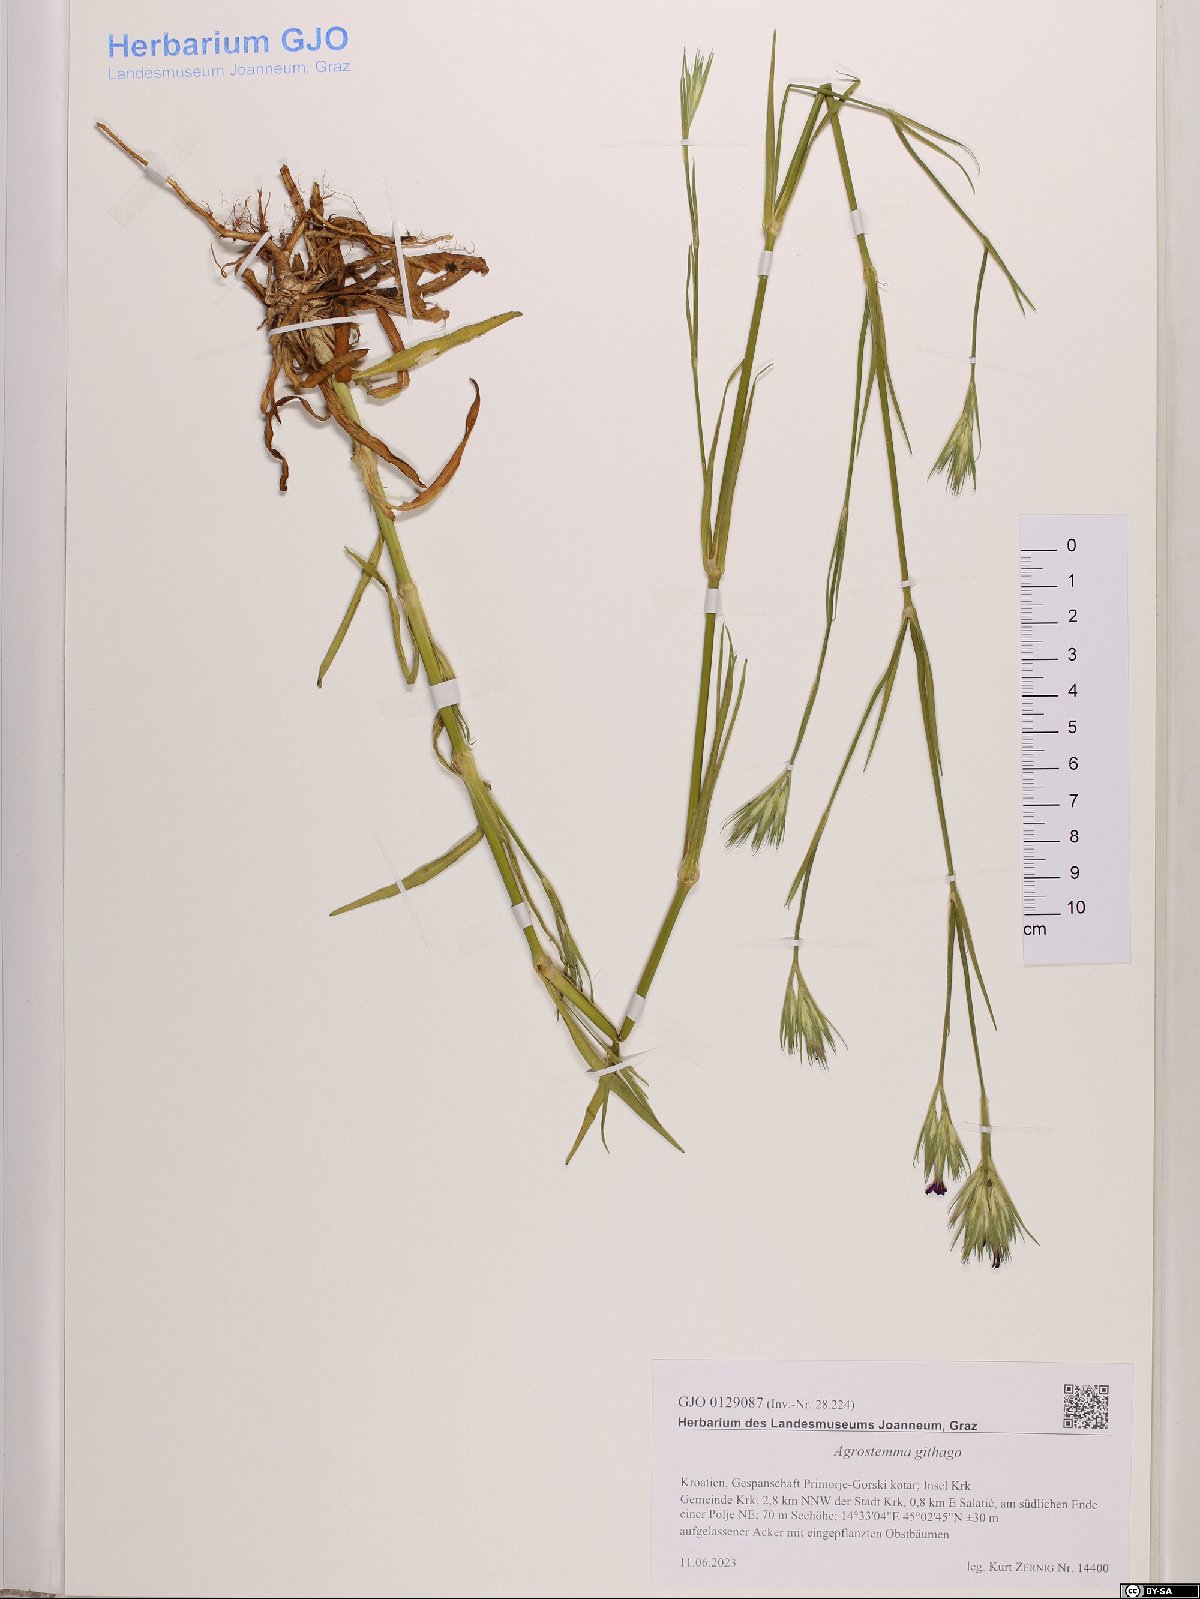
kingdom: Plantae
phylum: Tracheophyta
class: Magnoliopsida
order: Caryophyllales
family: Caryophyllaceae
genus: Agrostemma
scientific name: Agrostemma githago
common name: Common corncockle
